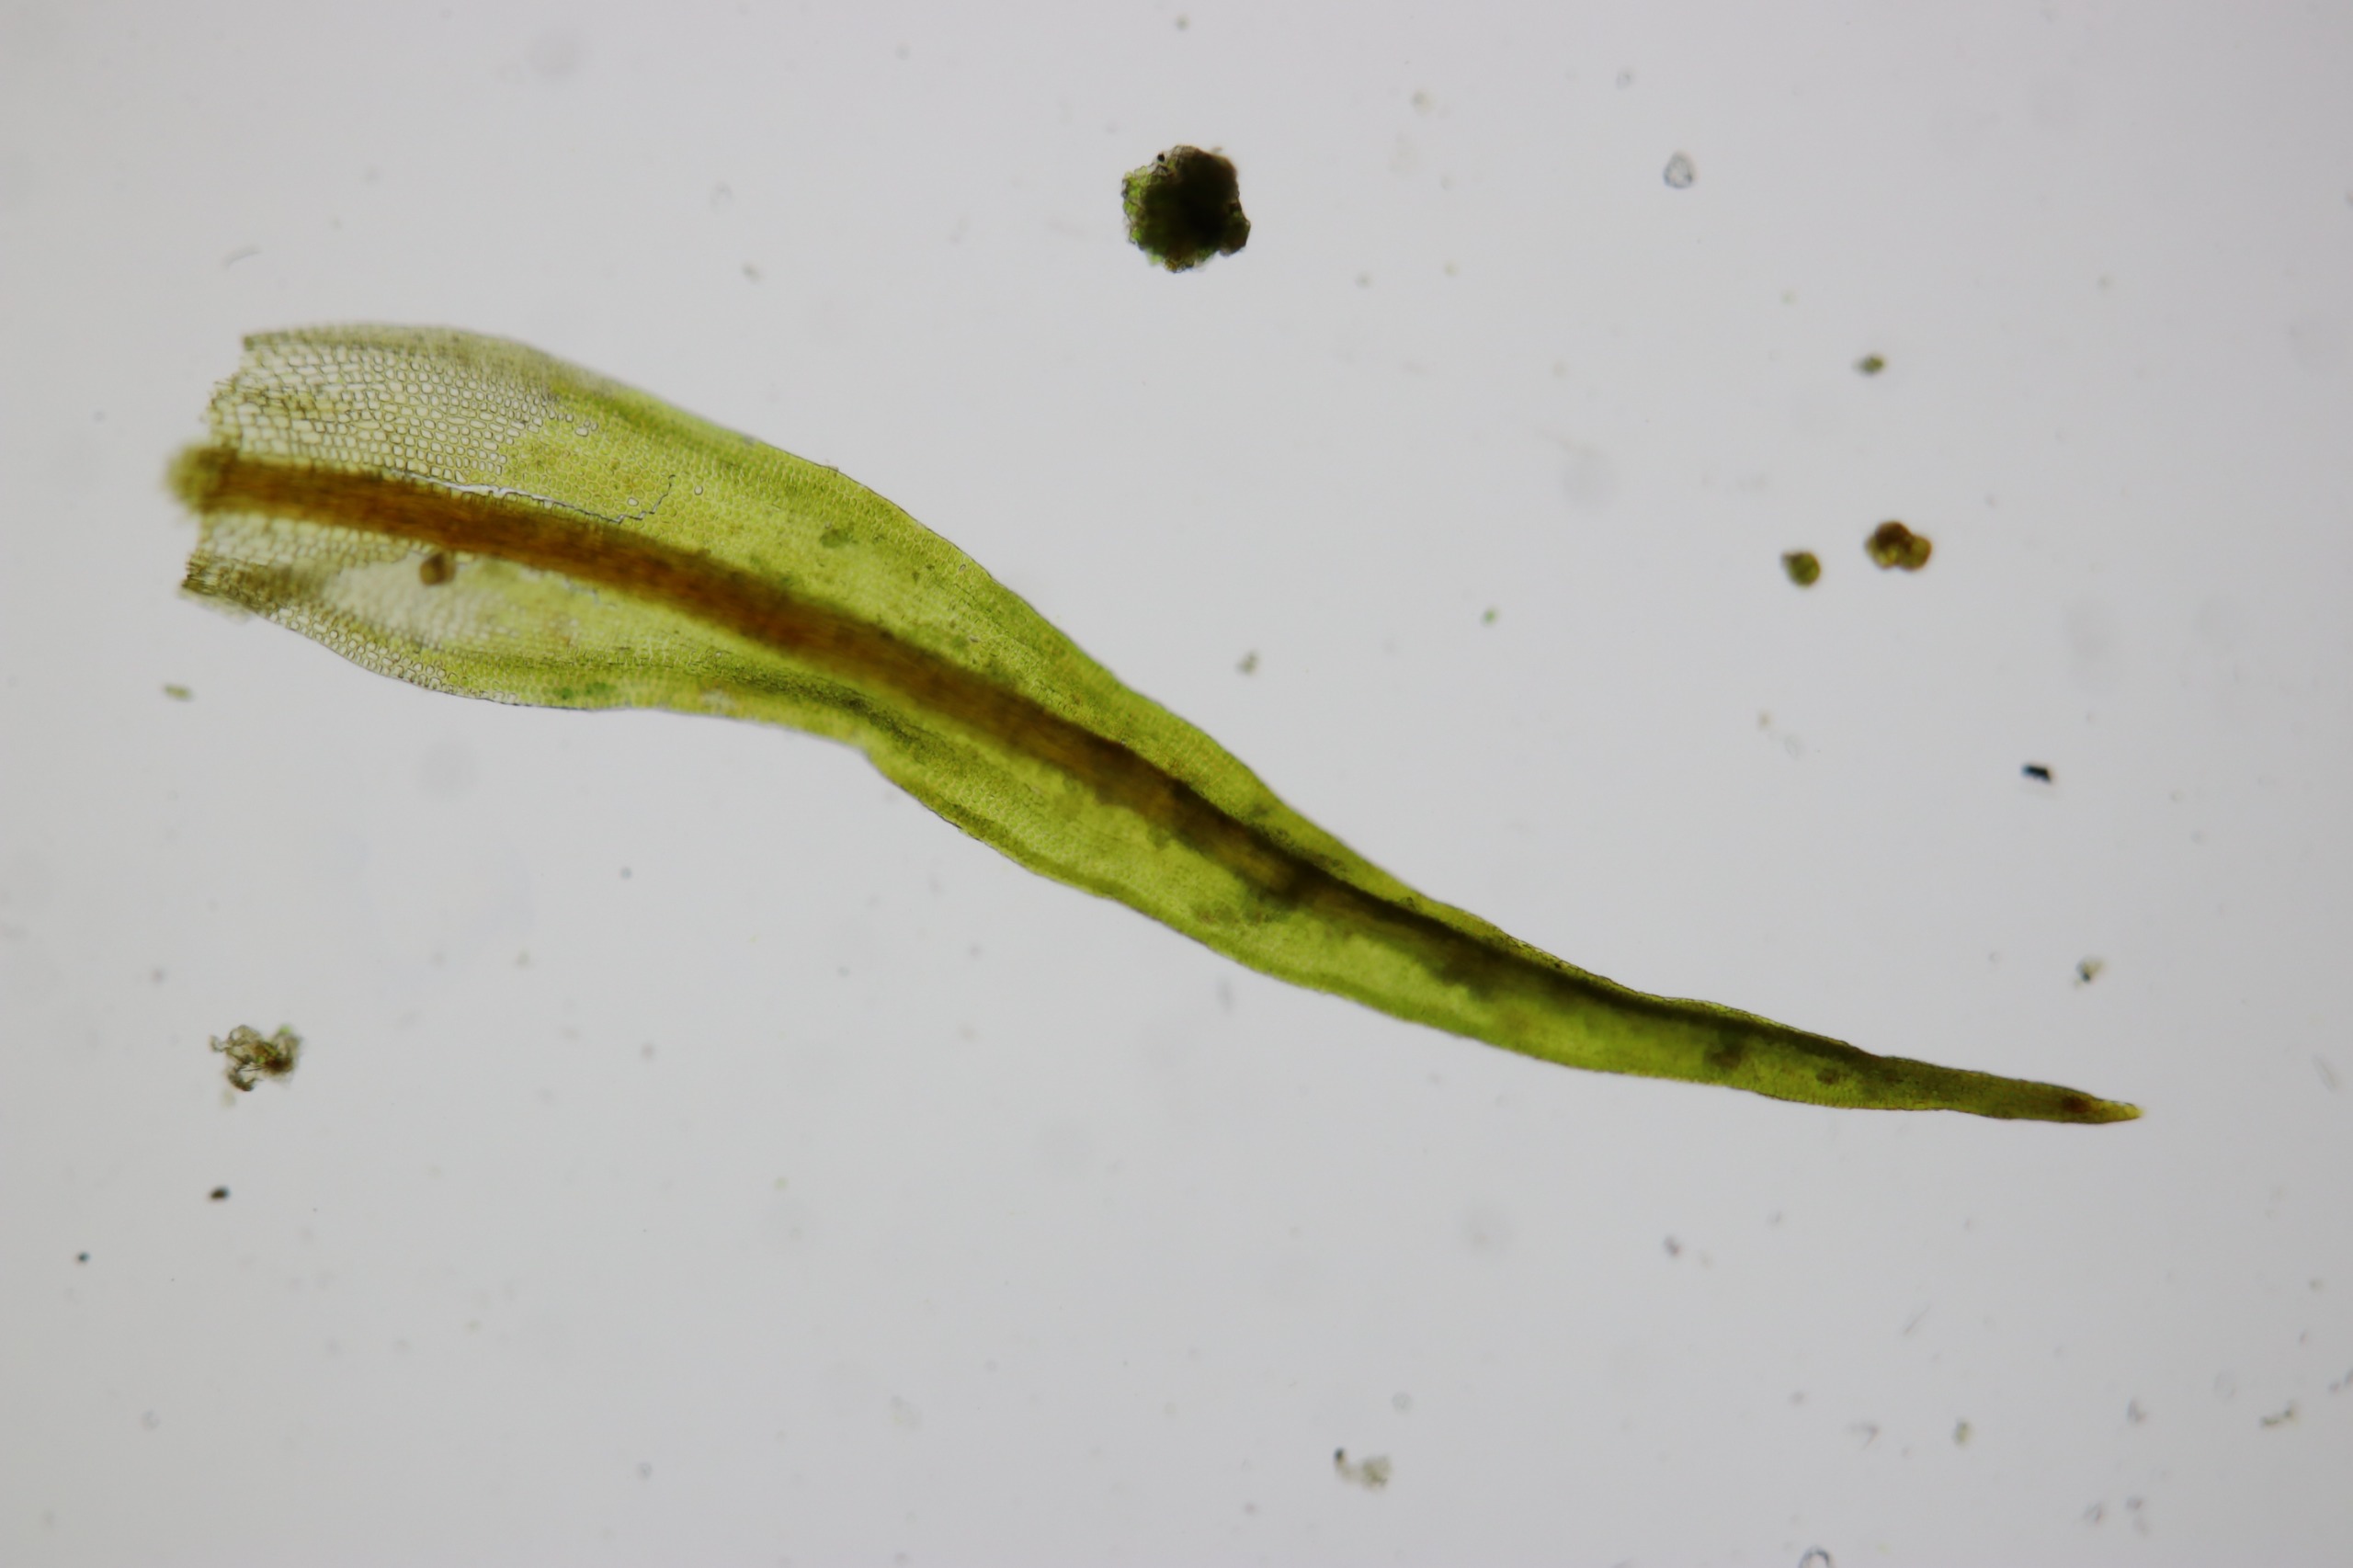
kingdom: Plantae
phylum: Bryophyta
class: Bryopsida
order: Pottiales
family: Pottiaceae
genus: Didymodon
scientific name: Didymodon rigidulus
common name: Stiv kalktuemos
